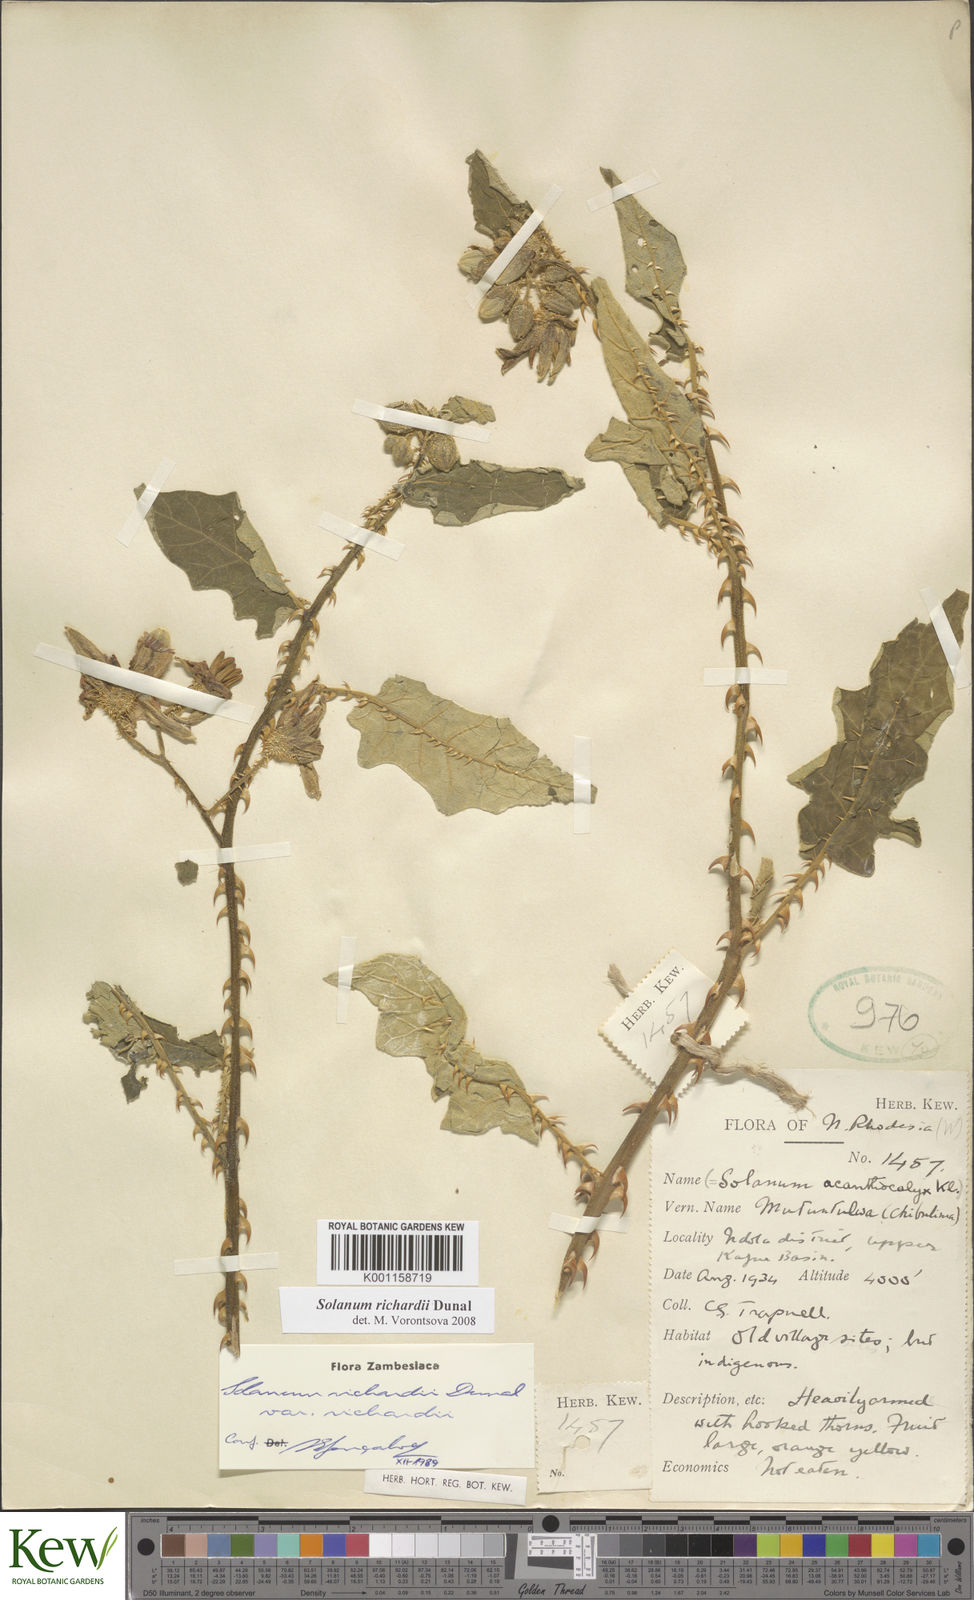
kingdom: Plantae
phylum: Tracheophyta
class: Magnoliopsida
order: Solanales
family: Solanaceae
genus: Solanum
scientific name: Solanum richardii
